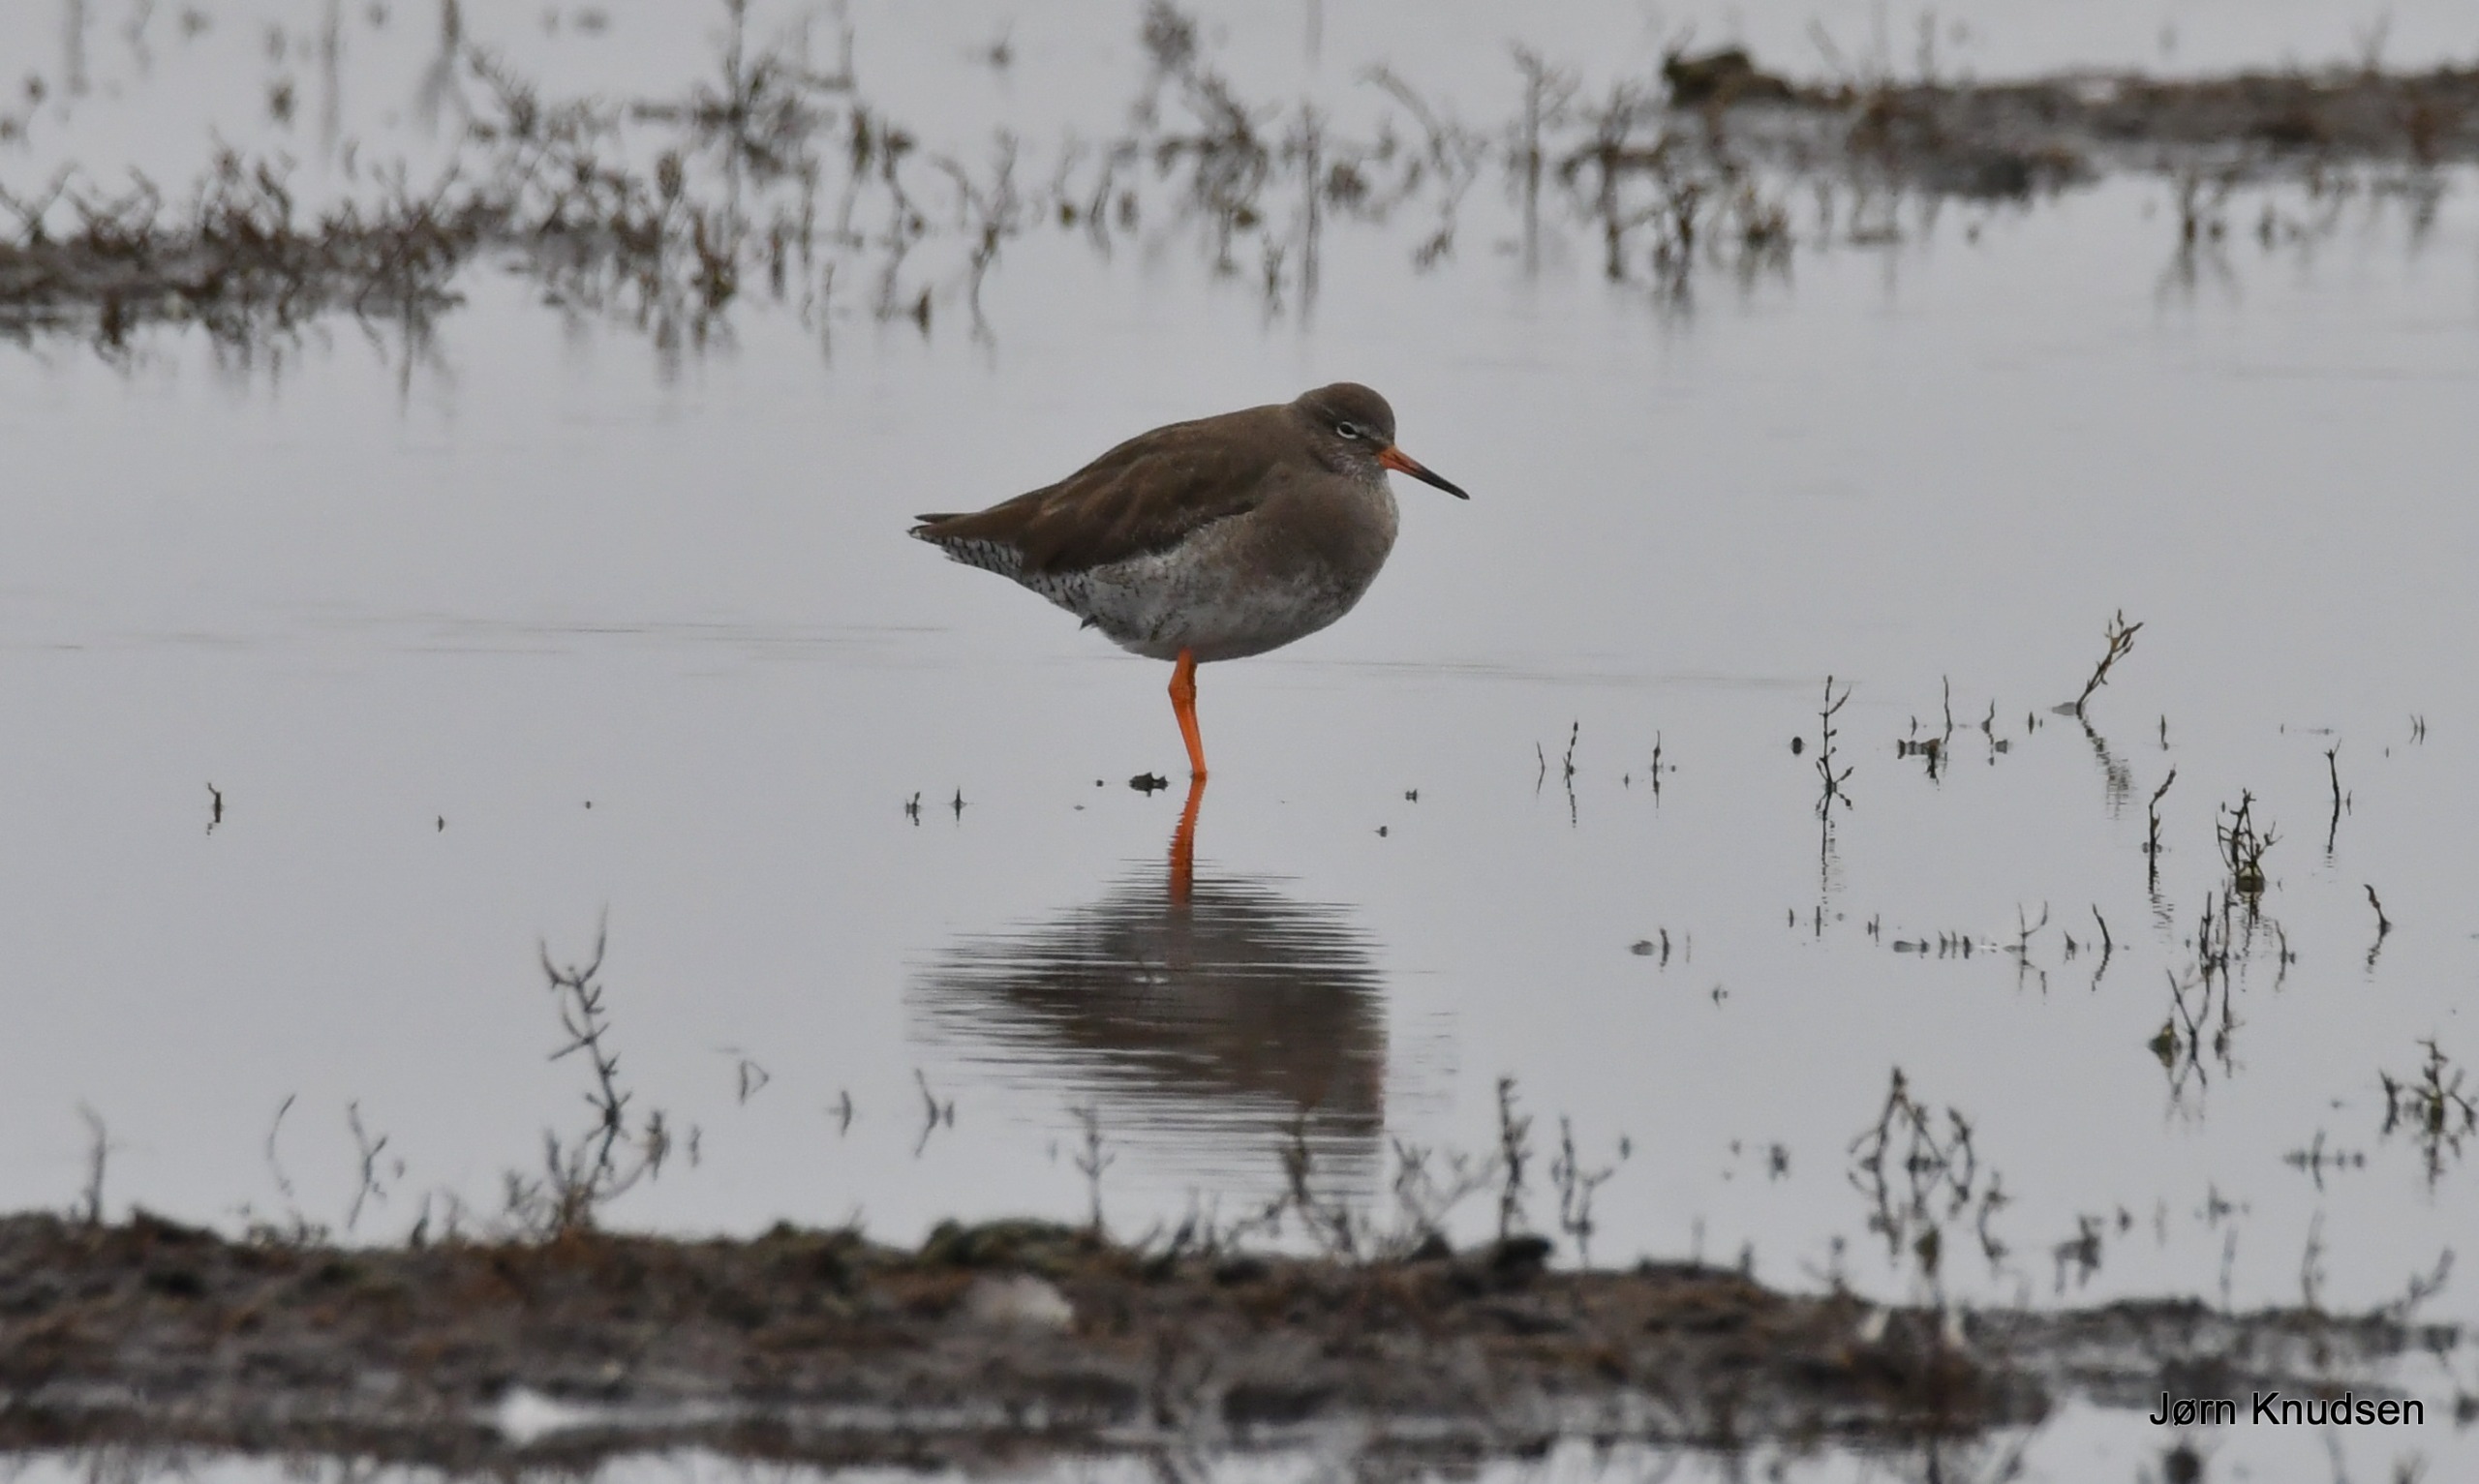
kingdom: Animalia
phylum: Chordata
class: Aves
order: Charadriiformes
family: Scolopacidae
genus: Tringa
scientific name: Tringa totanus
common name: Rødben
